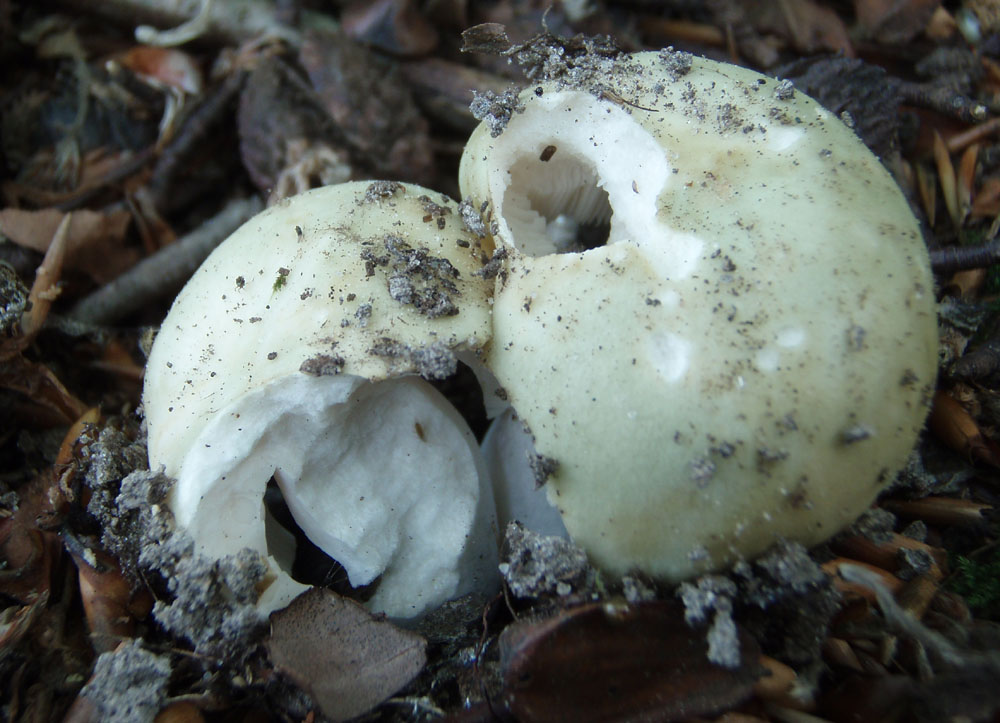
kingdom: Fungi
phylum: Basidiomycota
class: Agaricomycetes
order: Russulales
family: Russulaceae
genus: Russula
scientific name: Russula faustiana
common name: olivengrå skørhat
